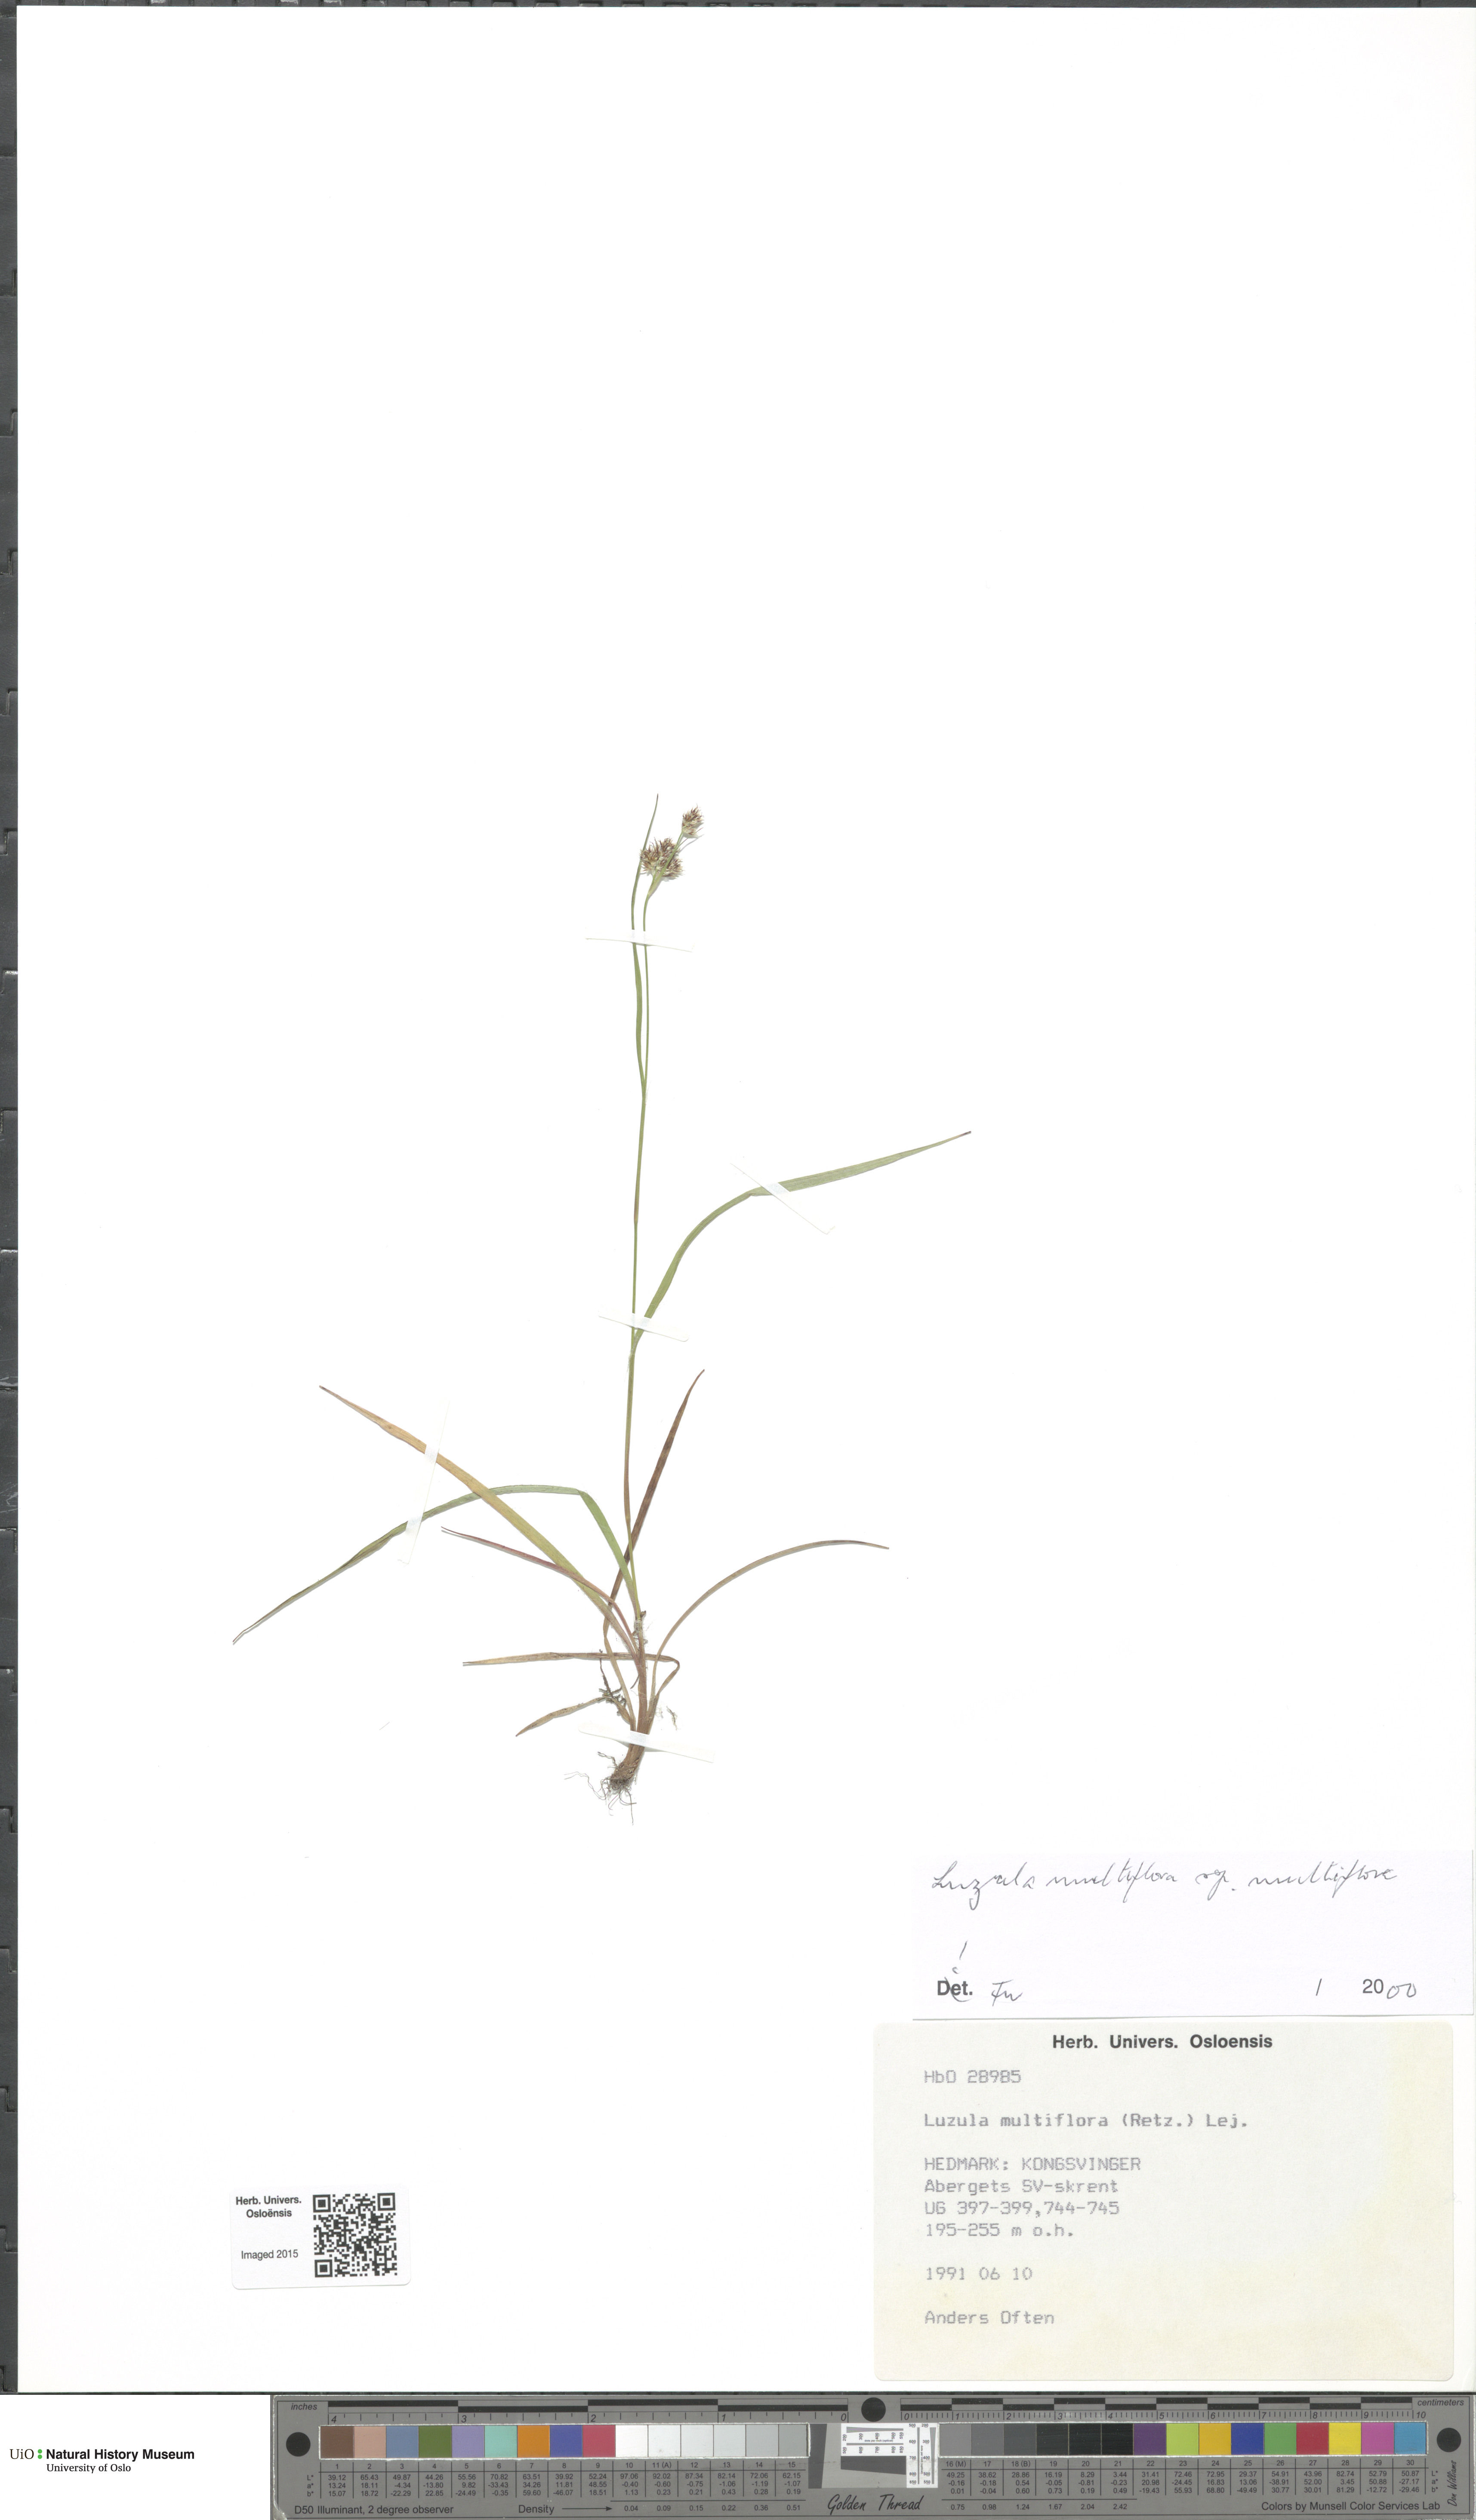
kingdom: Plantae
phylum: Tracheophyta
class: Liliopsida
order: Poales
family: Juncaceae
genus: Luzula
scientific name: Luzula multiflora
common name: Heath wood-rush
